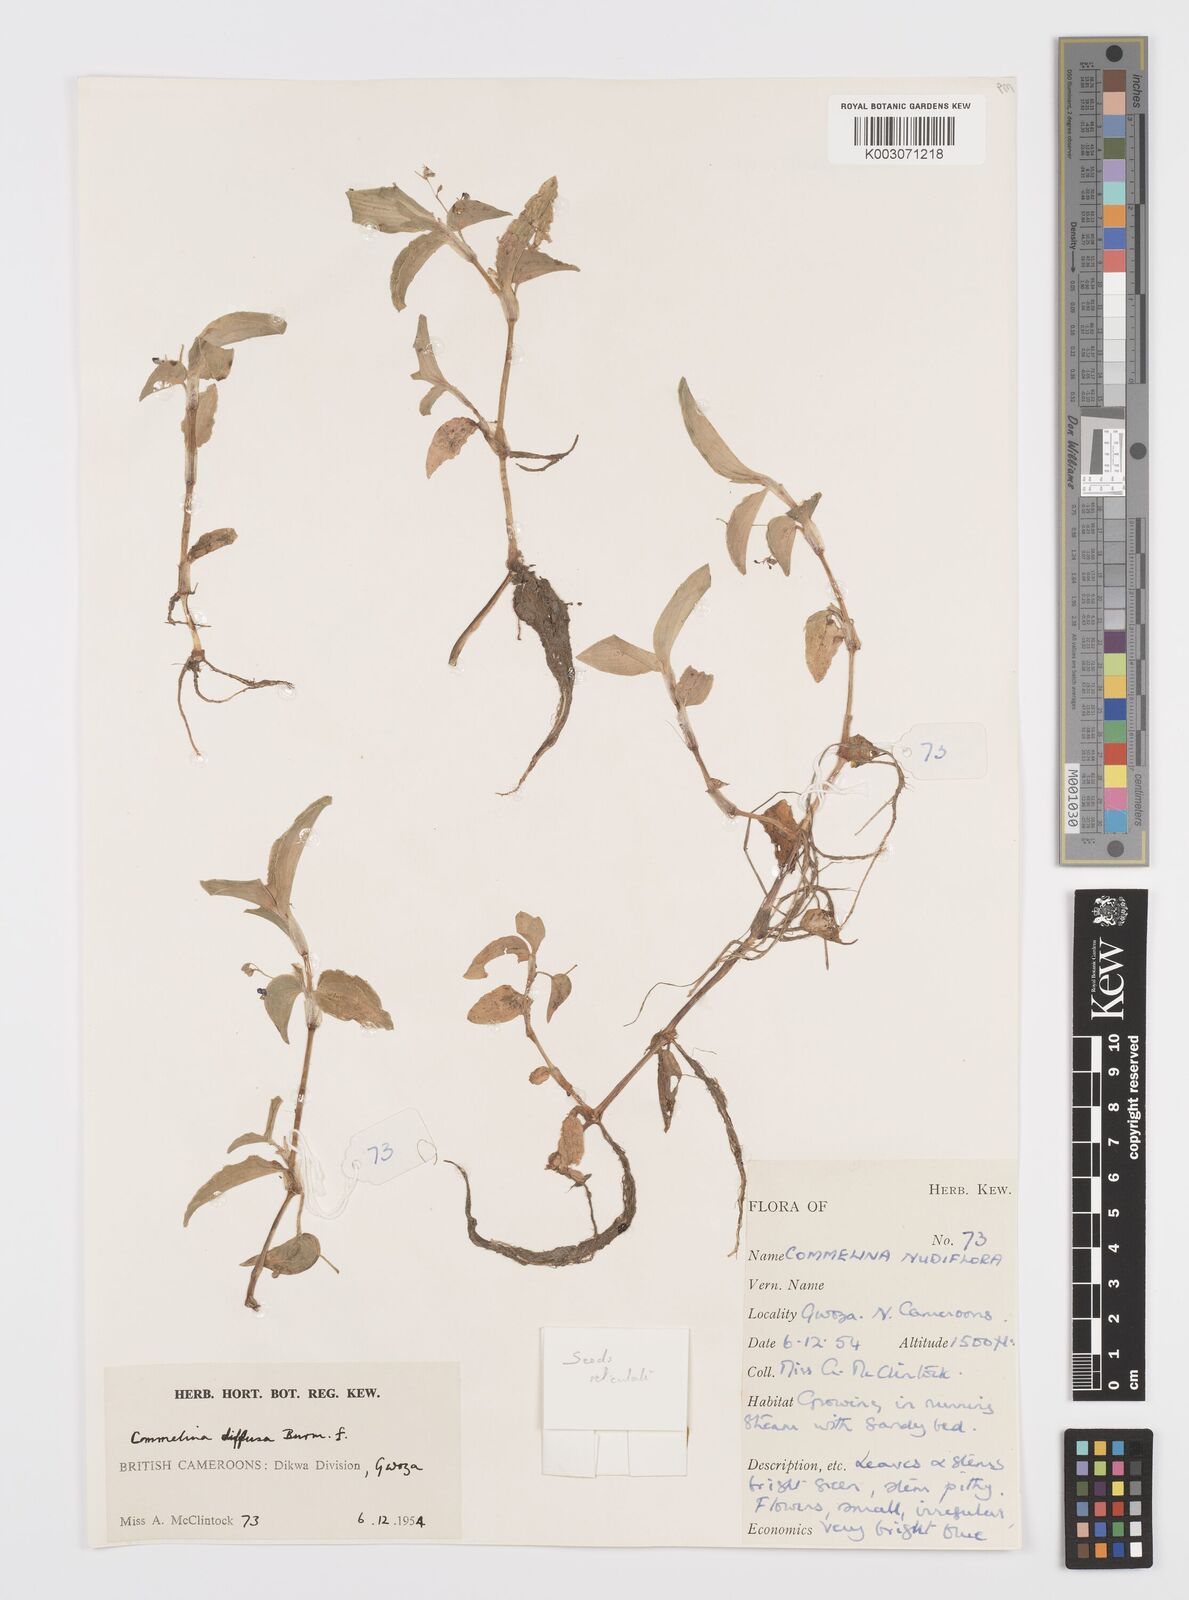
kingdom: Plantae
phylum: Tracheophyta
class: Liliopsida
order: Commelinales
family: Commelinaceae
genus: Commelina
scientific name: Commelina diffusa
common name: Climbing dayflower
